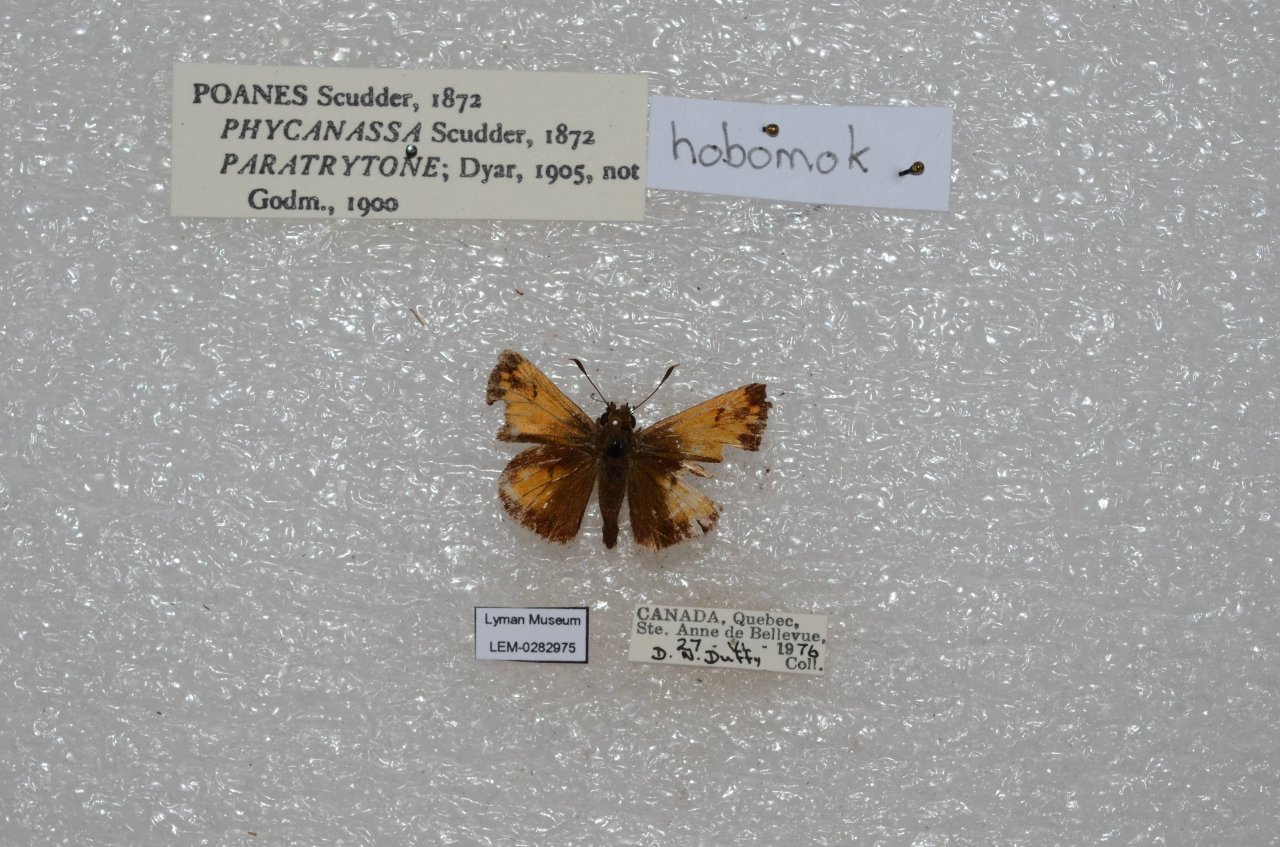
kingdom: Animalia
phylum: Arthropoda
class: Insecta
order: Lepidoptera
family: Hesperiidae
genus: Lon
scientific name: Lon hobomok
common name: Hobomok Skipper
